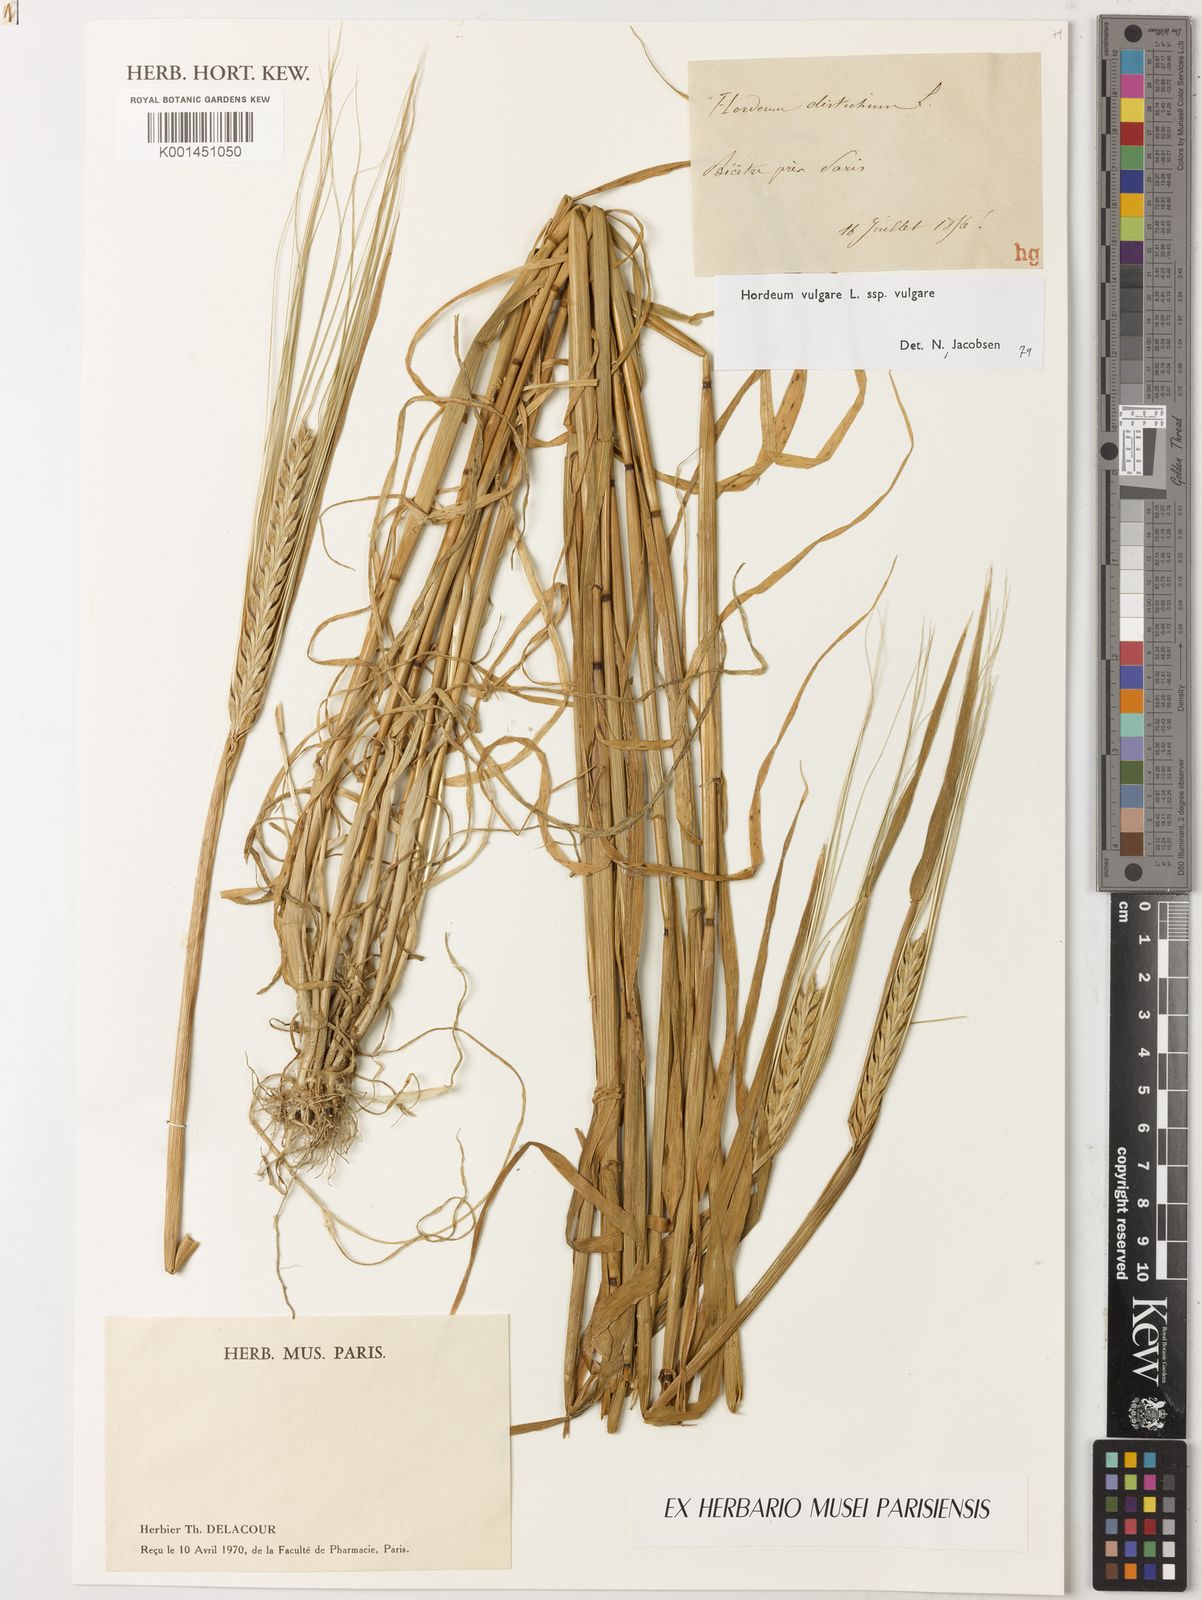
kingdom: Plantae
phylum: Tracheophyta
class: Liliopsida
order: Poales
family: Poaceae
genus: Hordeum
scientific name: Hordeum vulgare
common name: Common barley
